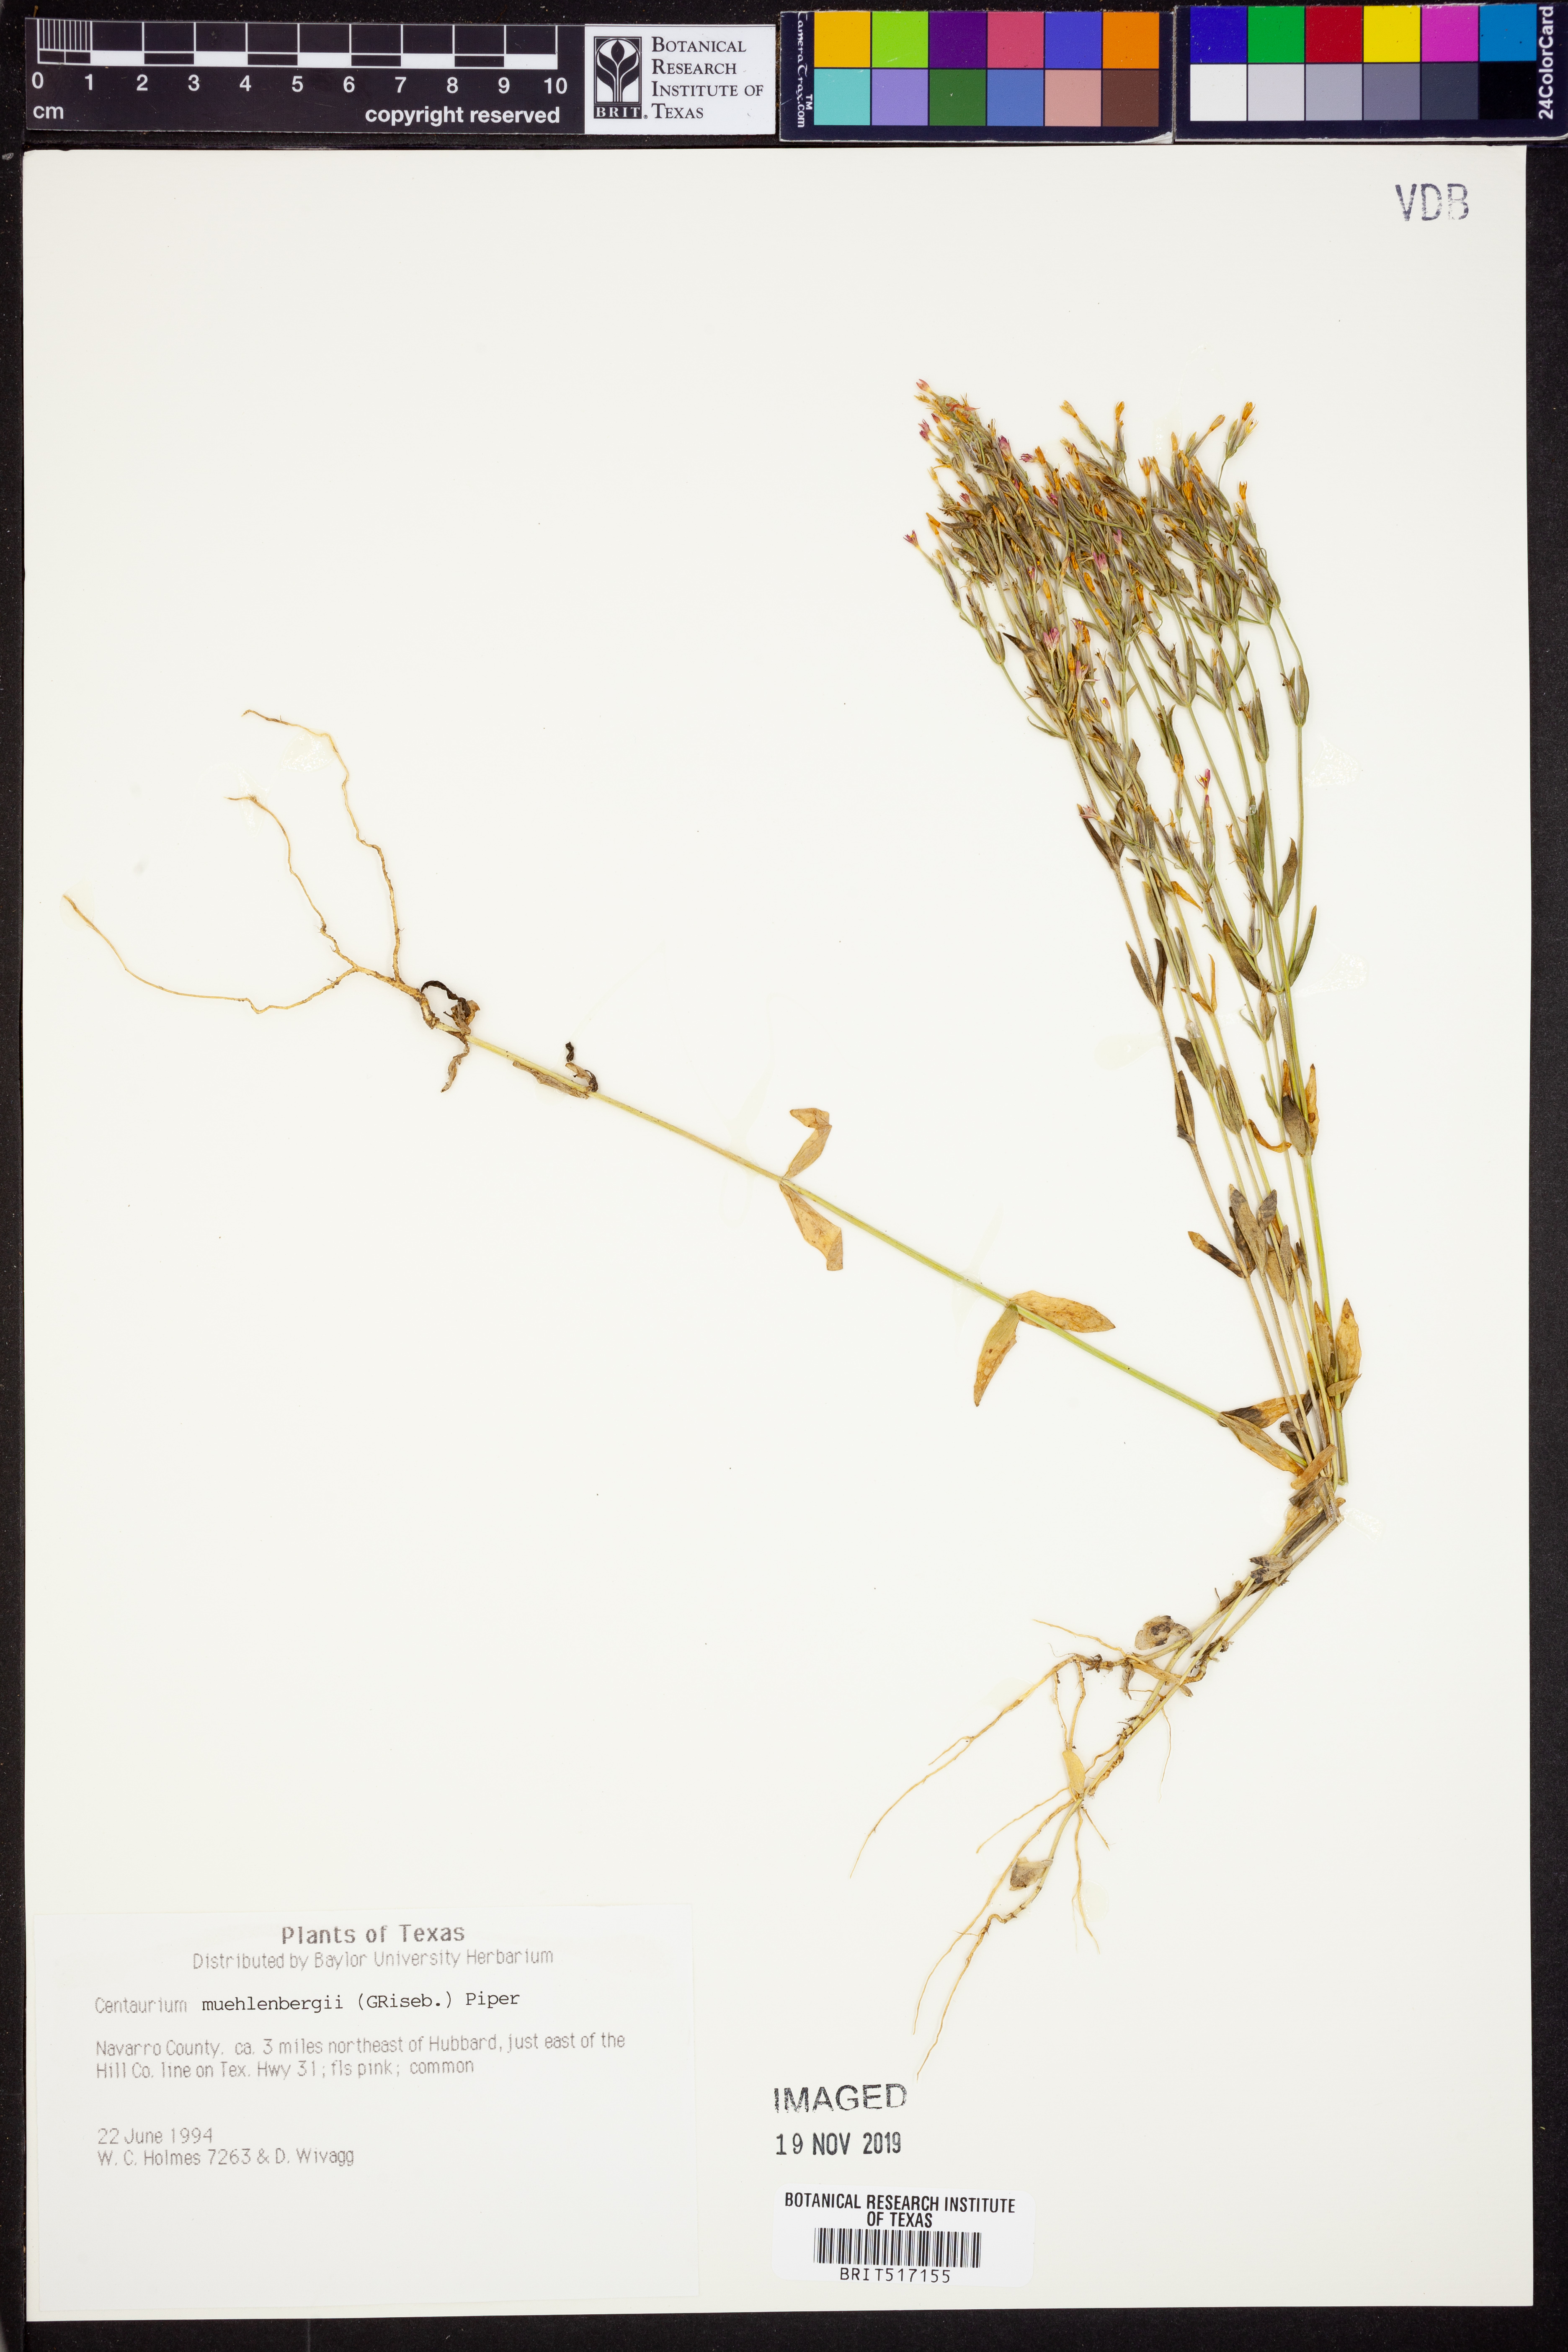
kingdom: Plantae
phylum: Tracheophyta
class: Magnoliopsida
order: Gentianales
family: Gentianaceae
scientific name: Gentianaceae
